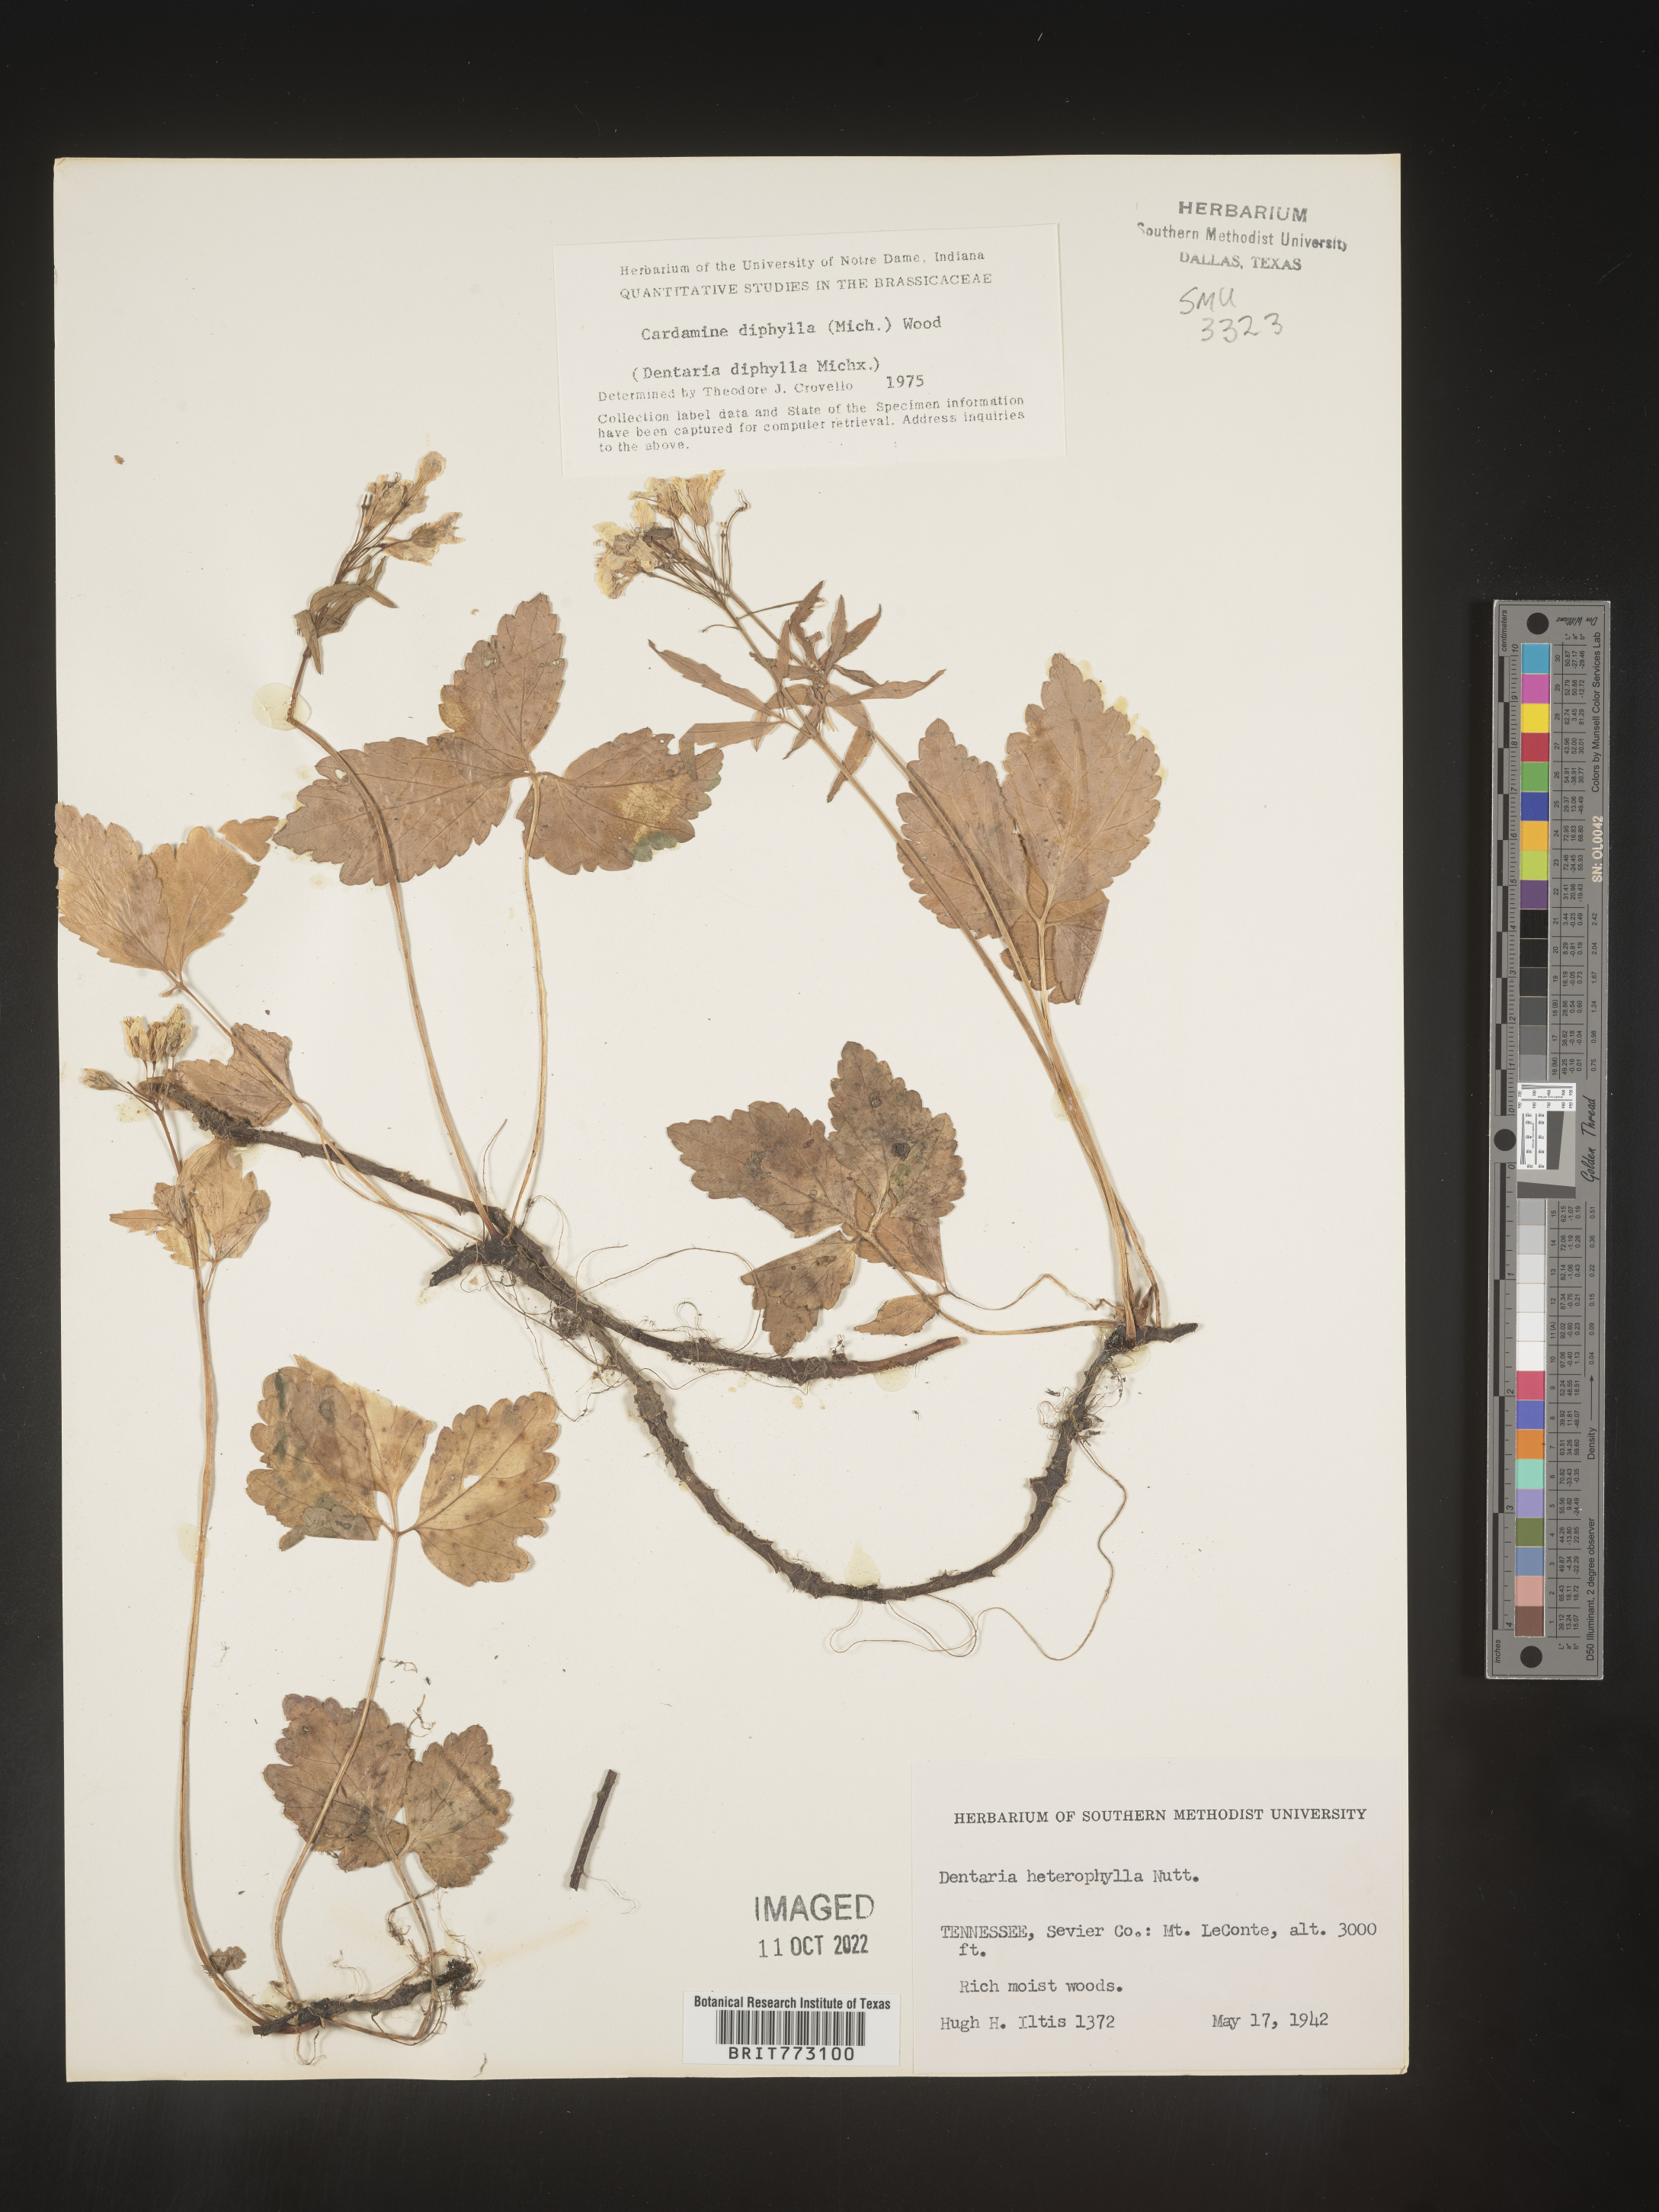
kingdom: Plantae
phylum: Tracheophyta
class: Magnoliopsida
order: Brassicales
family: Brassicaceae
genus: Cardamine
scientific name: Cardamine diphylla
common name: Broad-leaved toothwort
